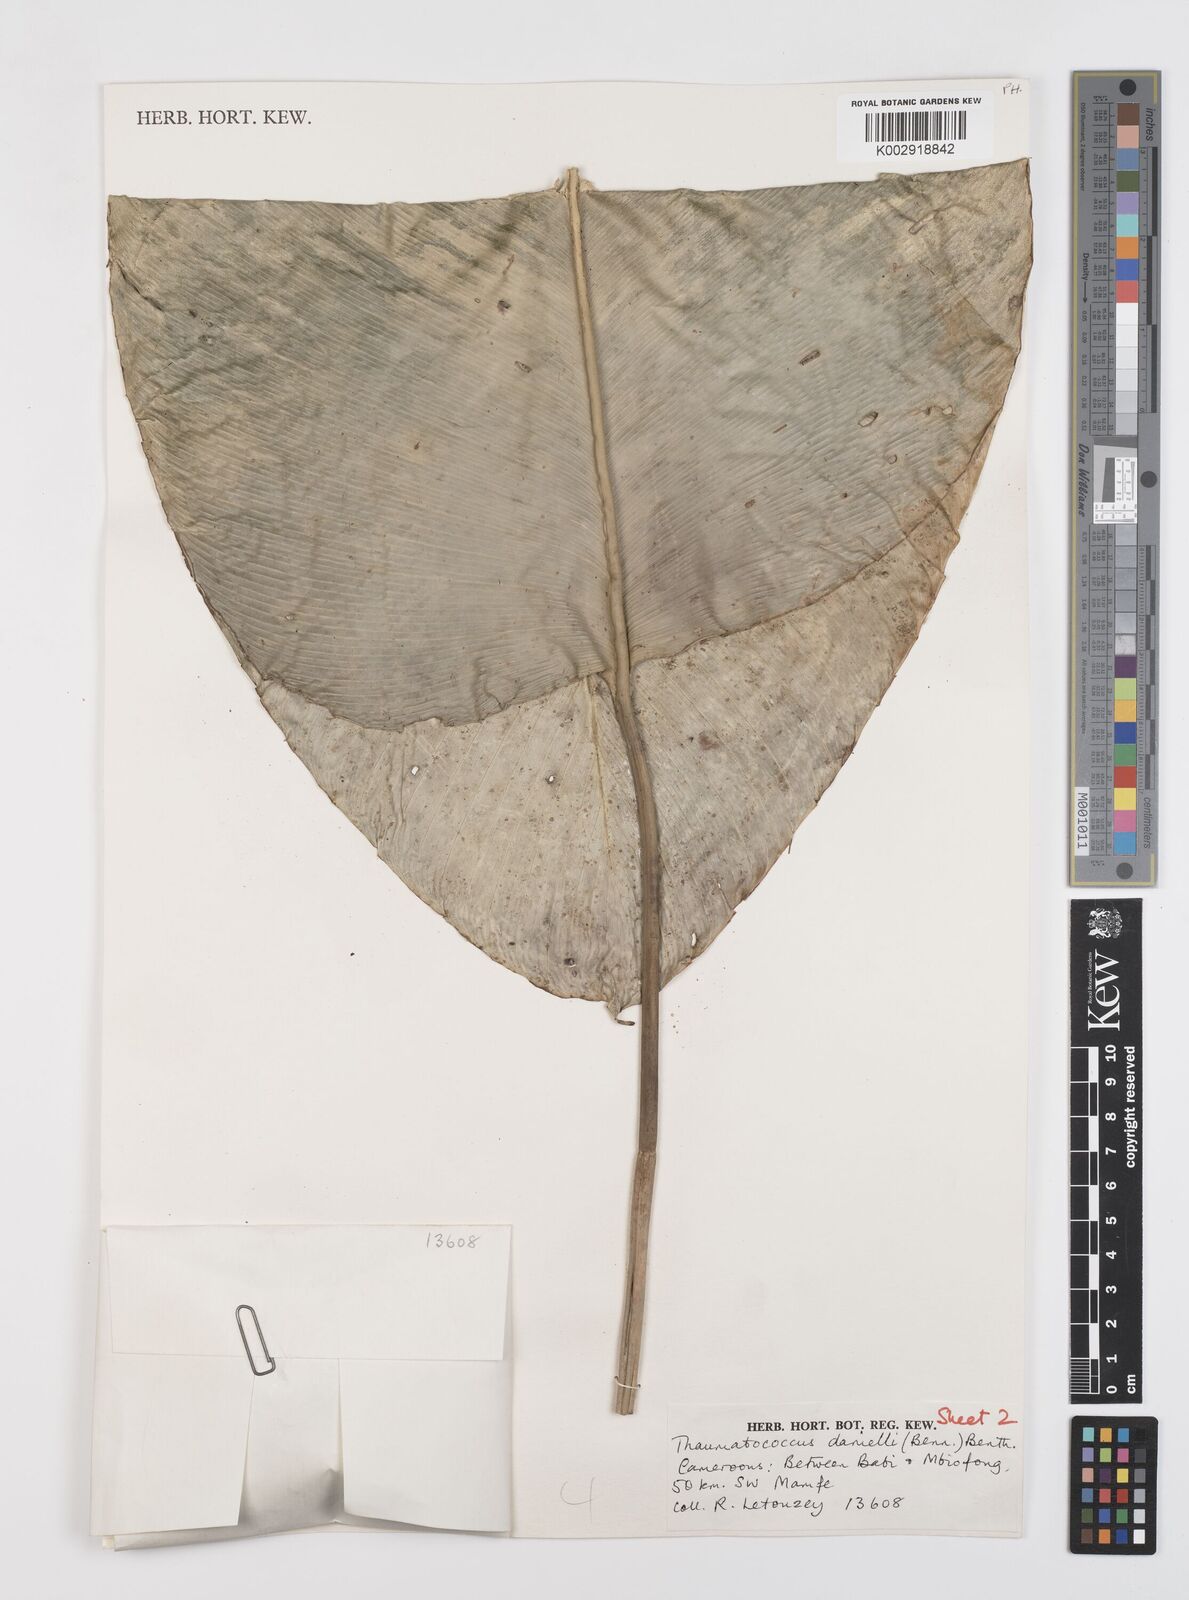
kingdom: Plantae
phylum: Tracheophyta
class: Liliopsida
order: Zingiberales
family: Marantaceae
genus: Thaumatococcus
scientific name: Thaumatococcus daniellii
